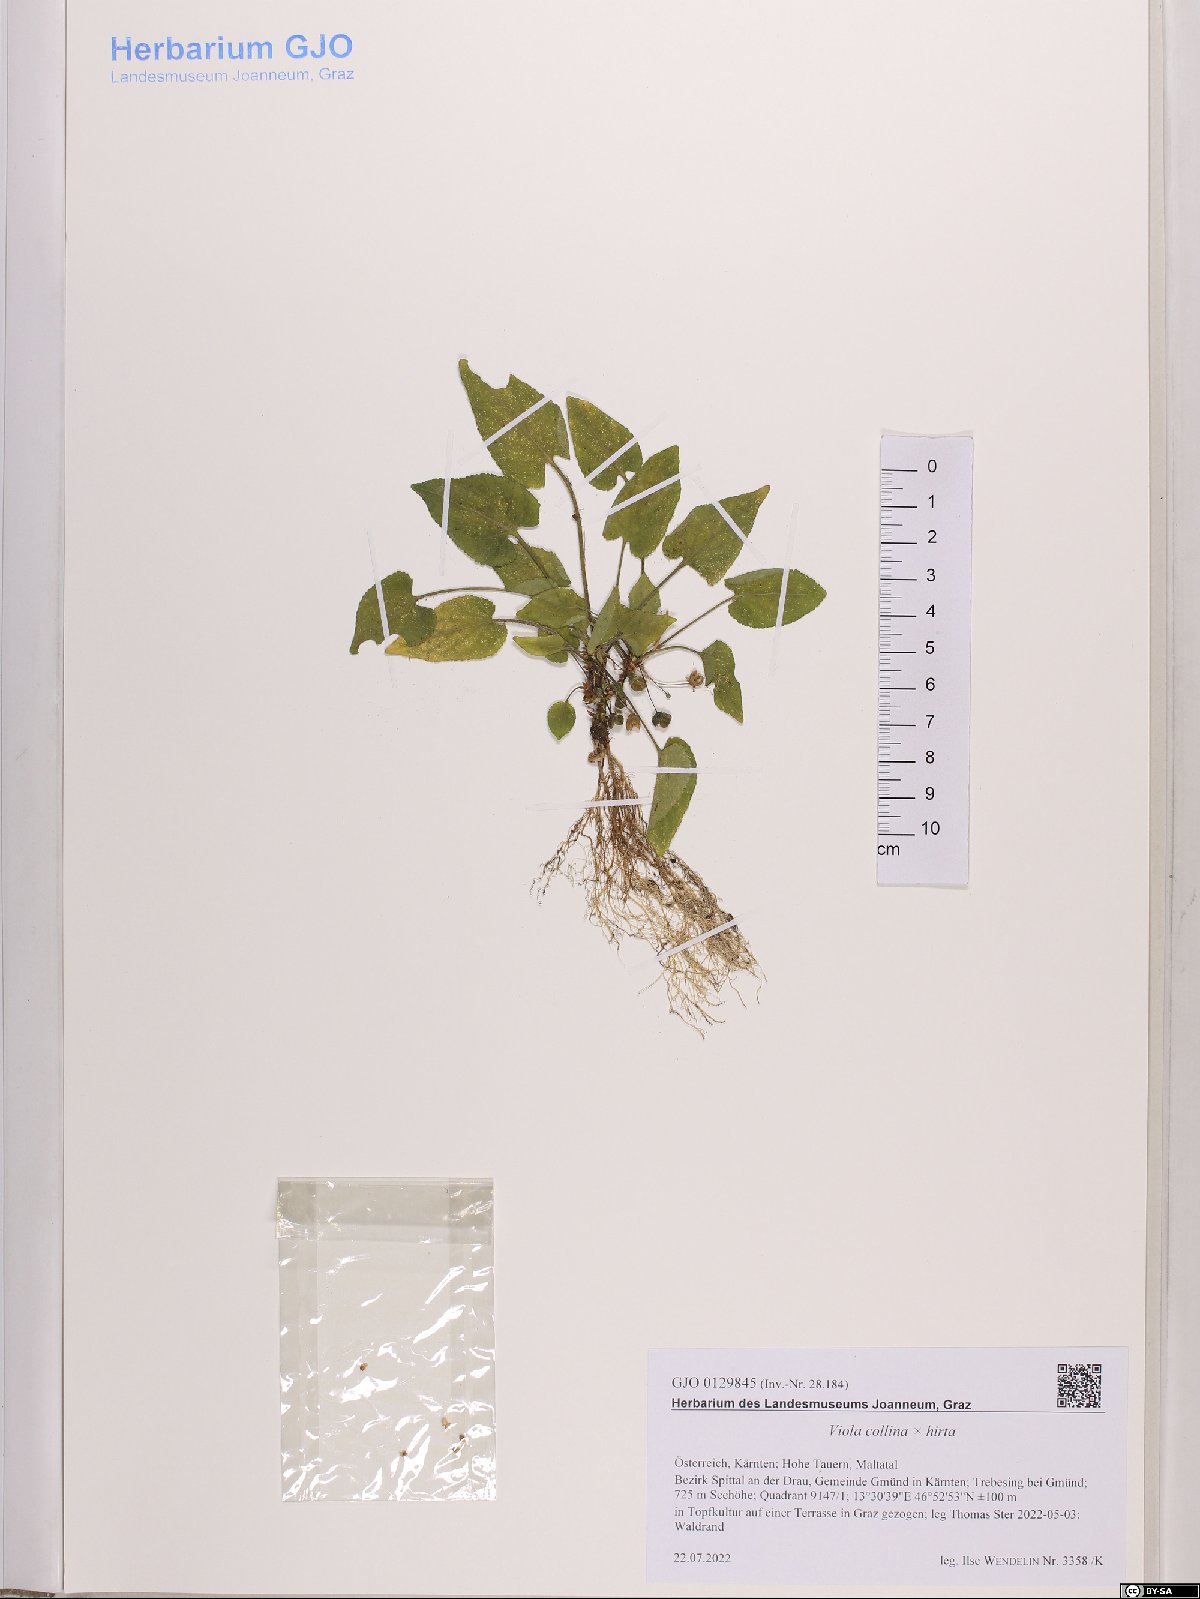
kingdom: Plantae
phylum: Tracheophyta
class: Magnoliopsida
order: Malpighiales
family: Violaceae
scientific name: Violaceae
